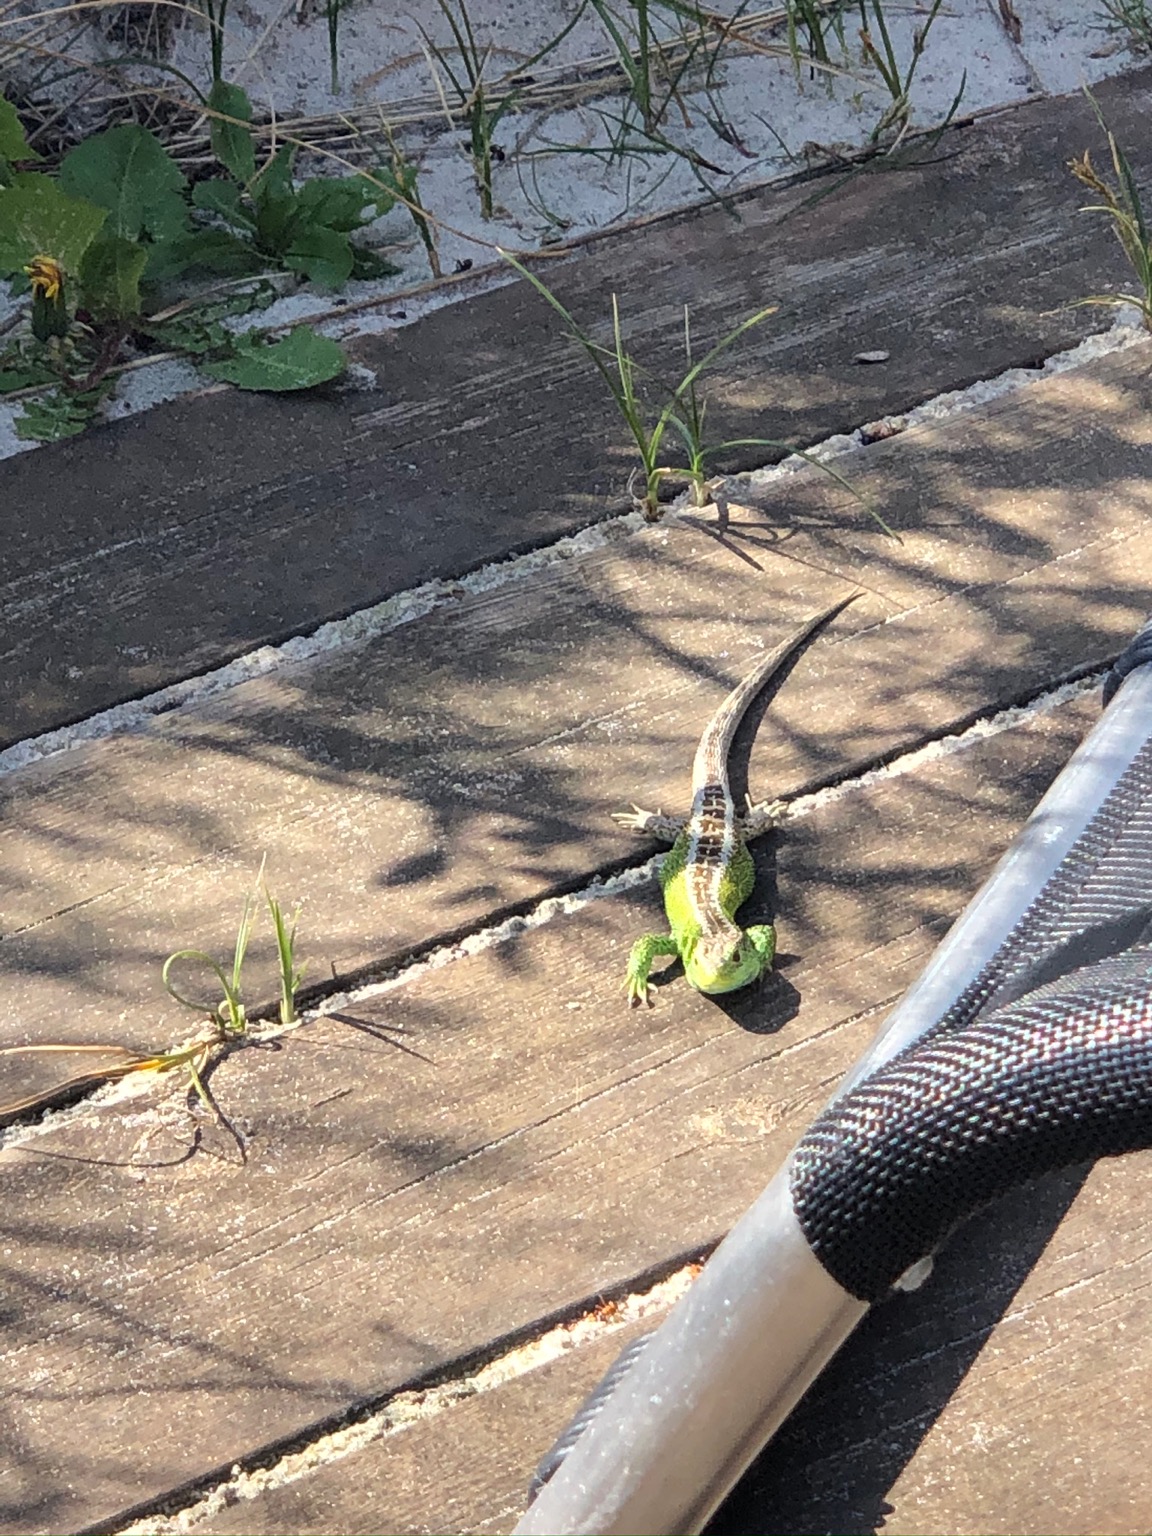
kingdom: Animalia
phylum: Chordata
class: Squamata
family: Lacertidae
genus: Lacerta
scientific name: Lacerta agilis
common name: Markfirben
